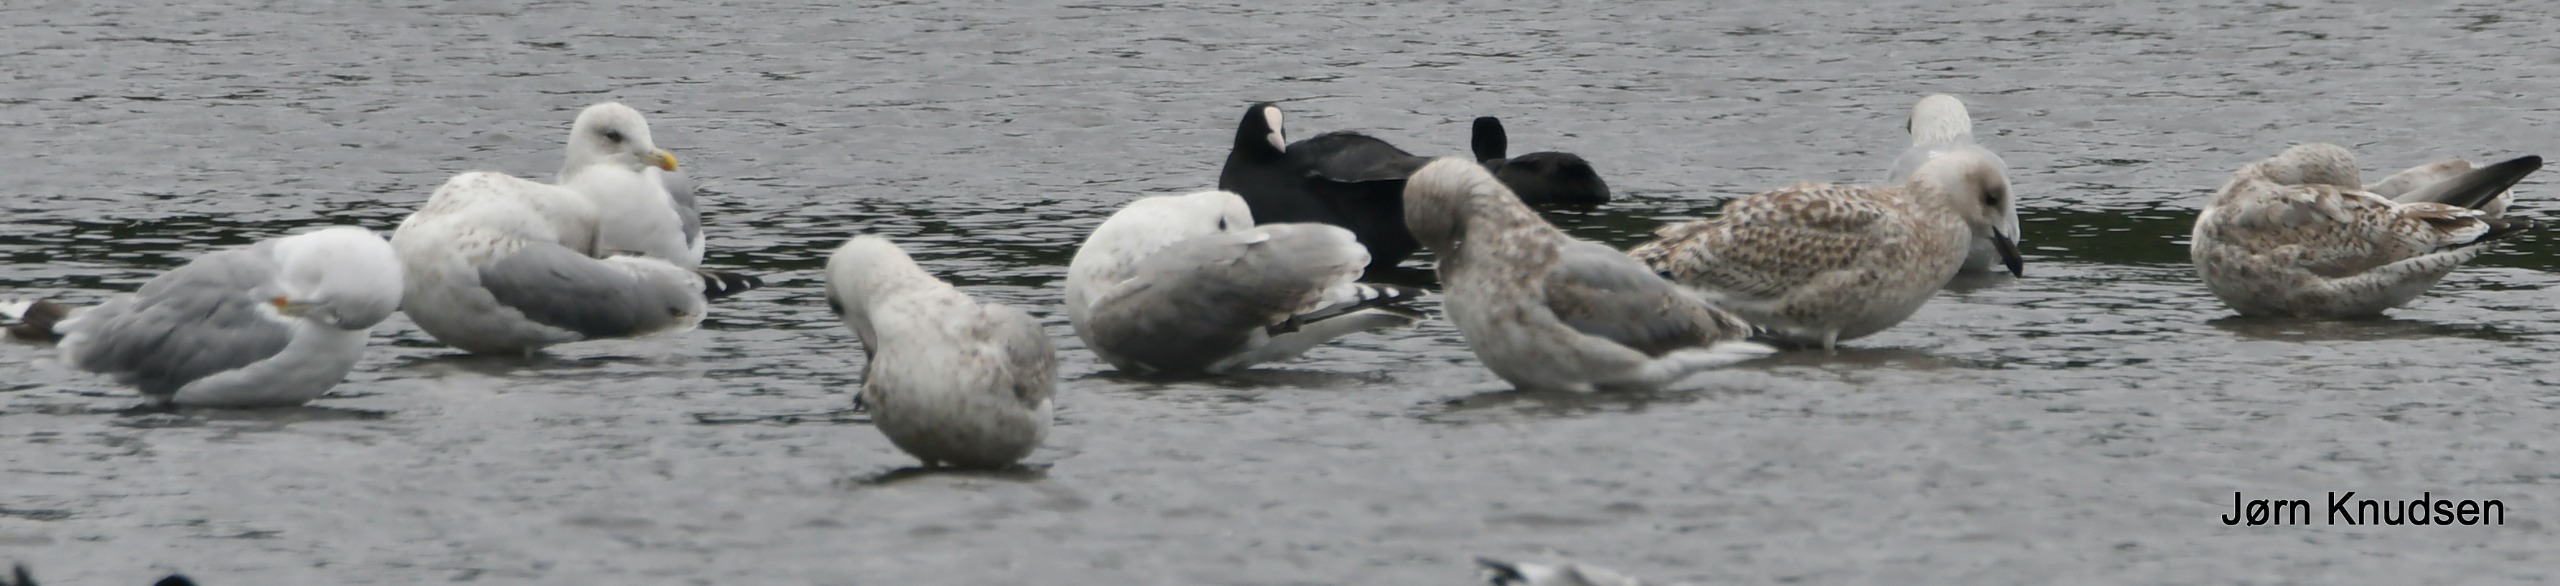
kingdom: Animalia
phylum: Chordata
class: Aves
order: Charadriiformes
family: Laridae
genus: Larus
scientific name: Larus argentatus
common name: Sølvmåge
